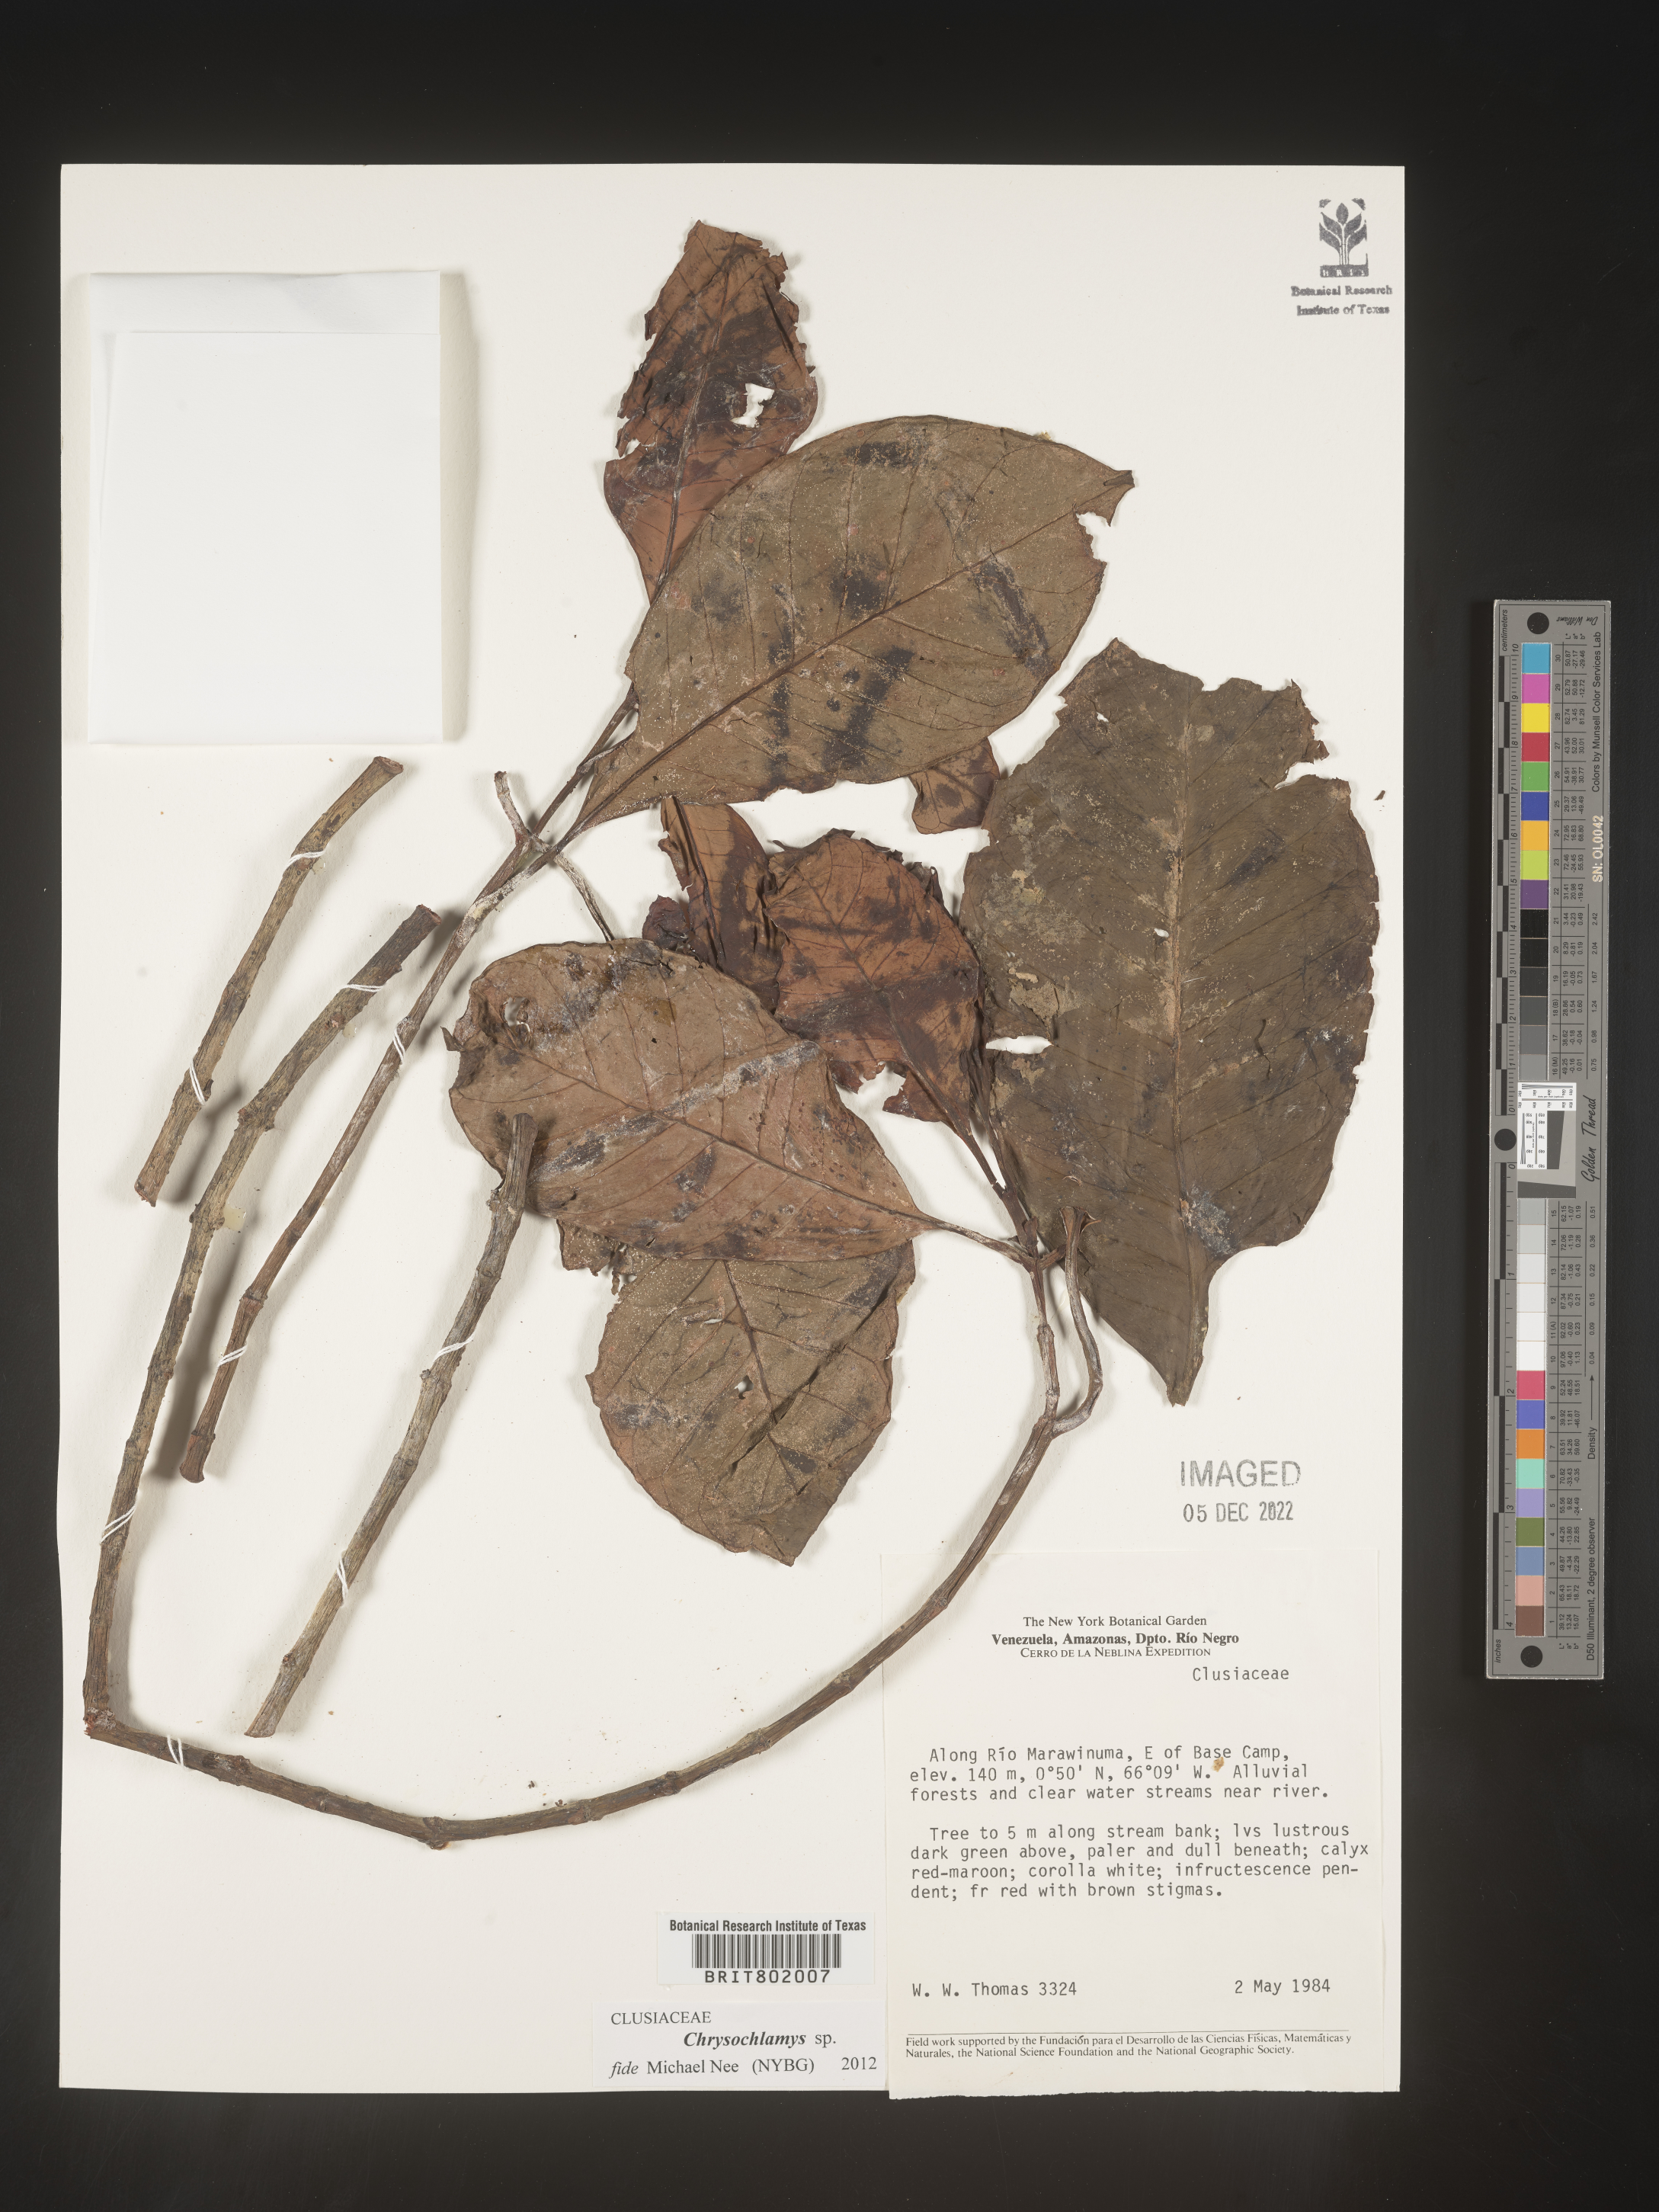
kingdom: Plantae
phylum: Tracheophyta
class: Magnoliopsida
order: Malpighiales
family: Clusiaceae
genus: Chrysochlamys
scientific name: Chrysochlamys
